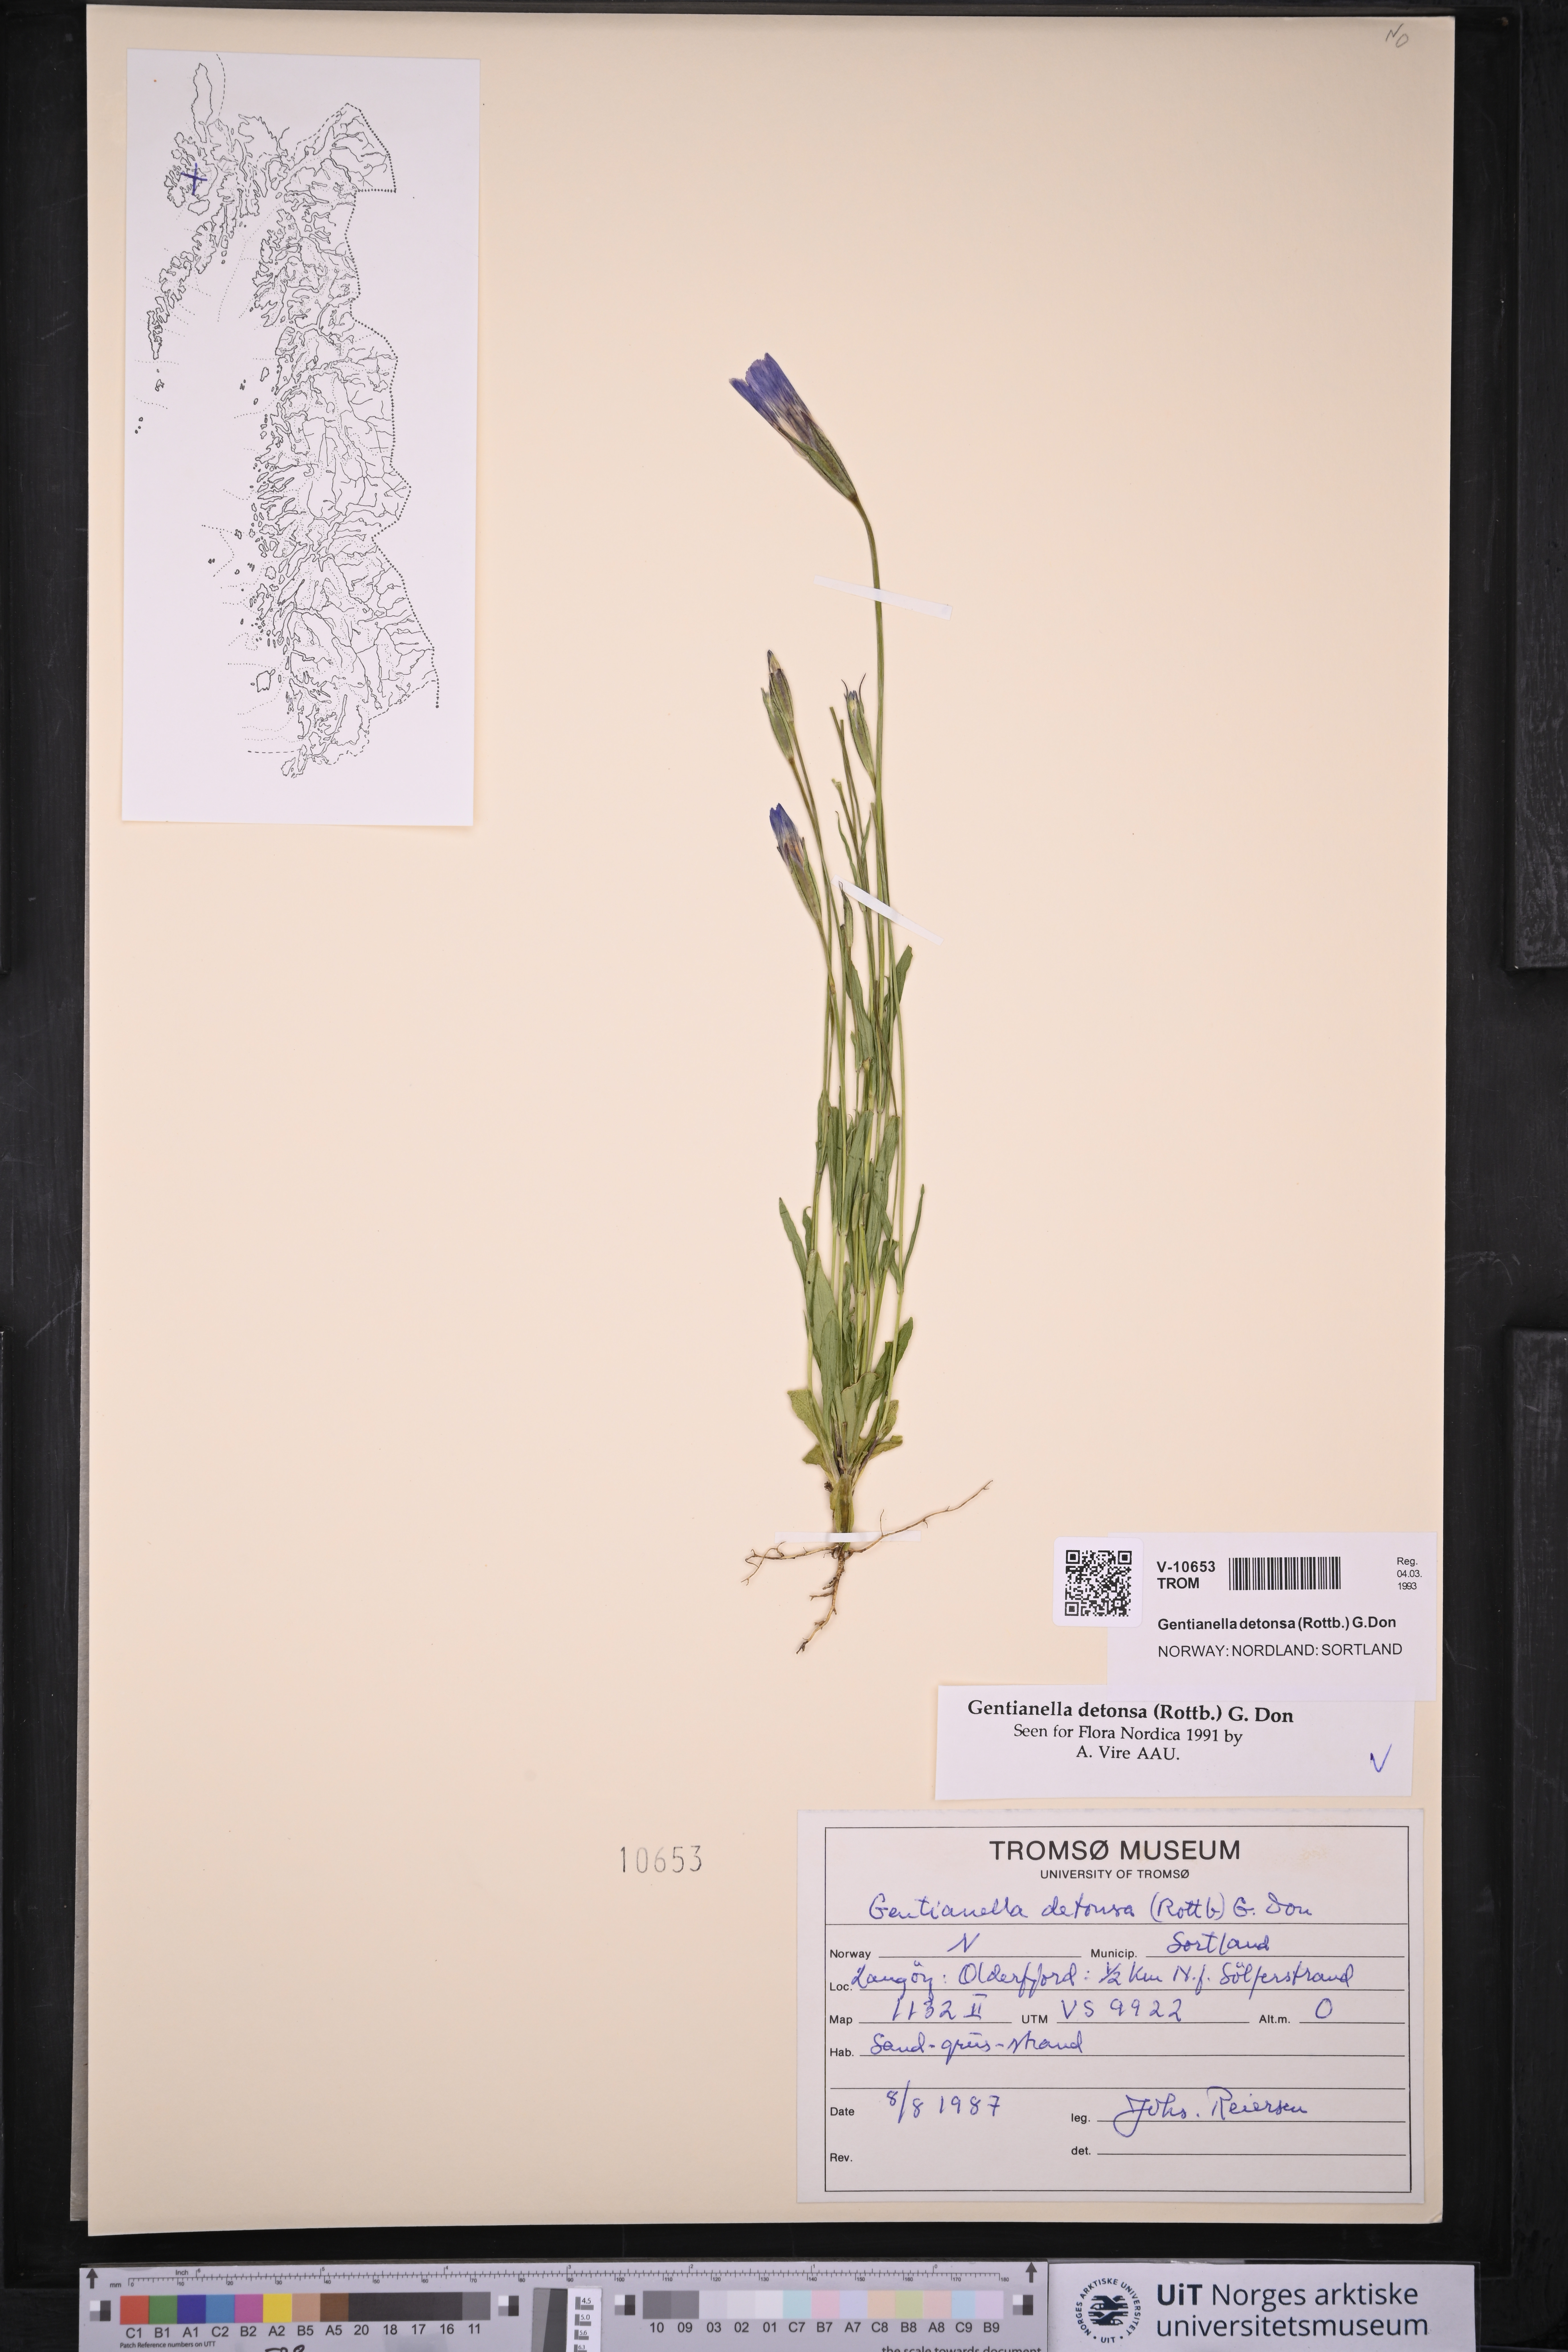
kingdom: Plantae
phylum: Tracheophyta
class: Magnoliopsida
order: Gentianales
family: Gentianaceae
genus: Gentianopsis
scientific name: Gentianopsis detonsa
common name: Fringed-gentian
